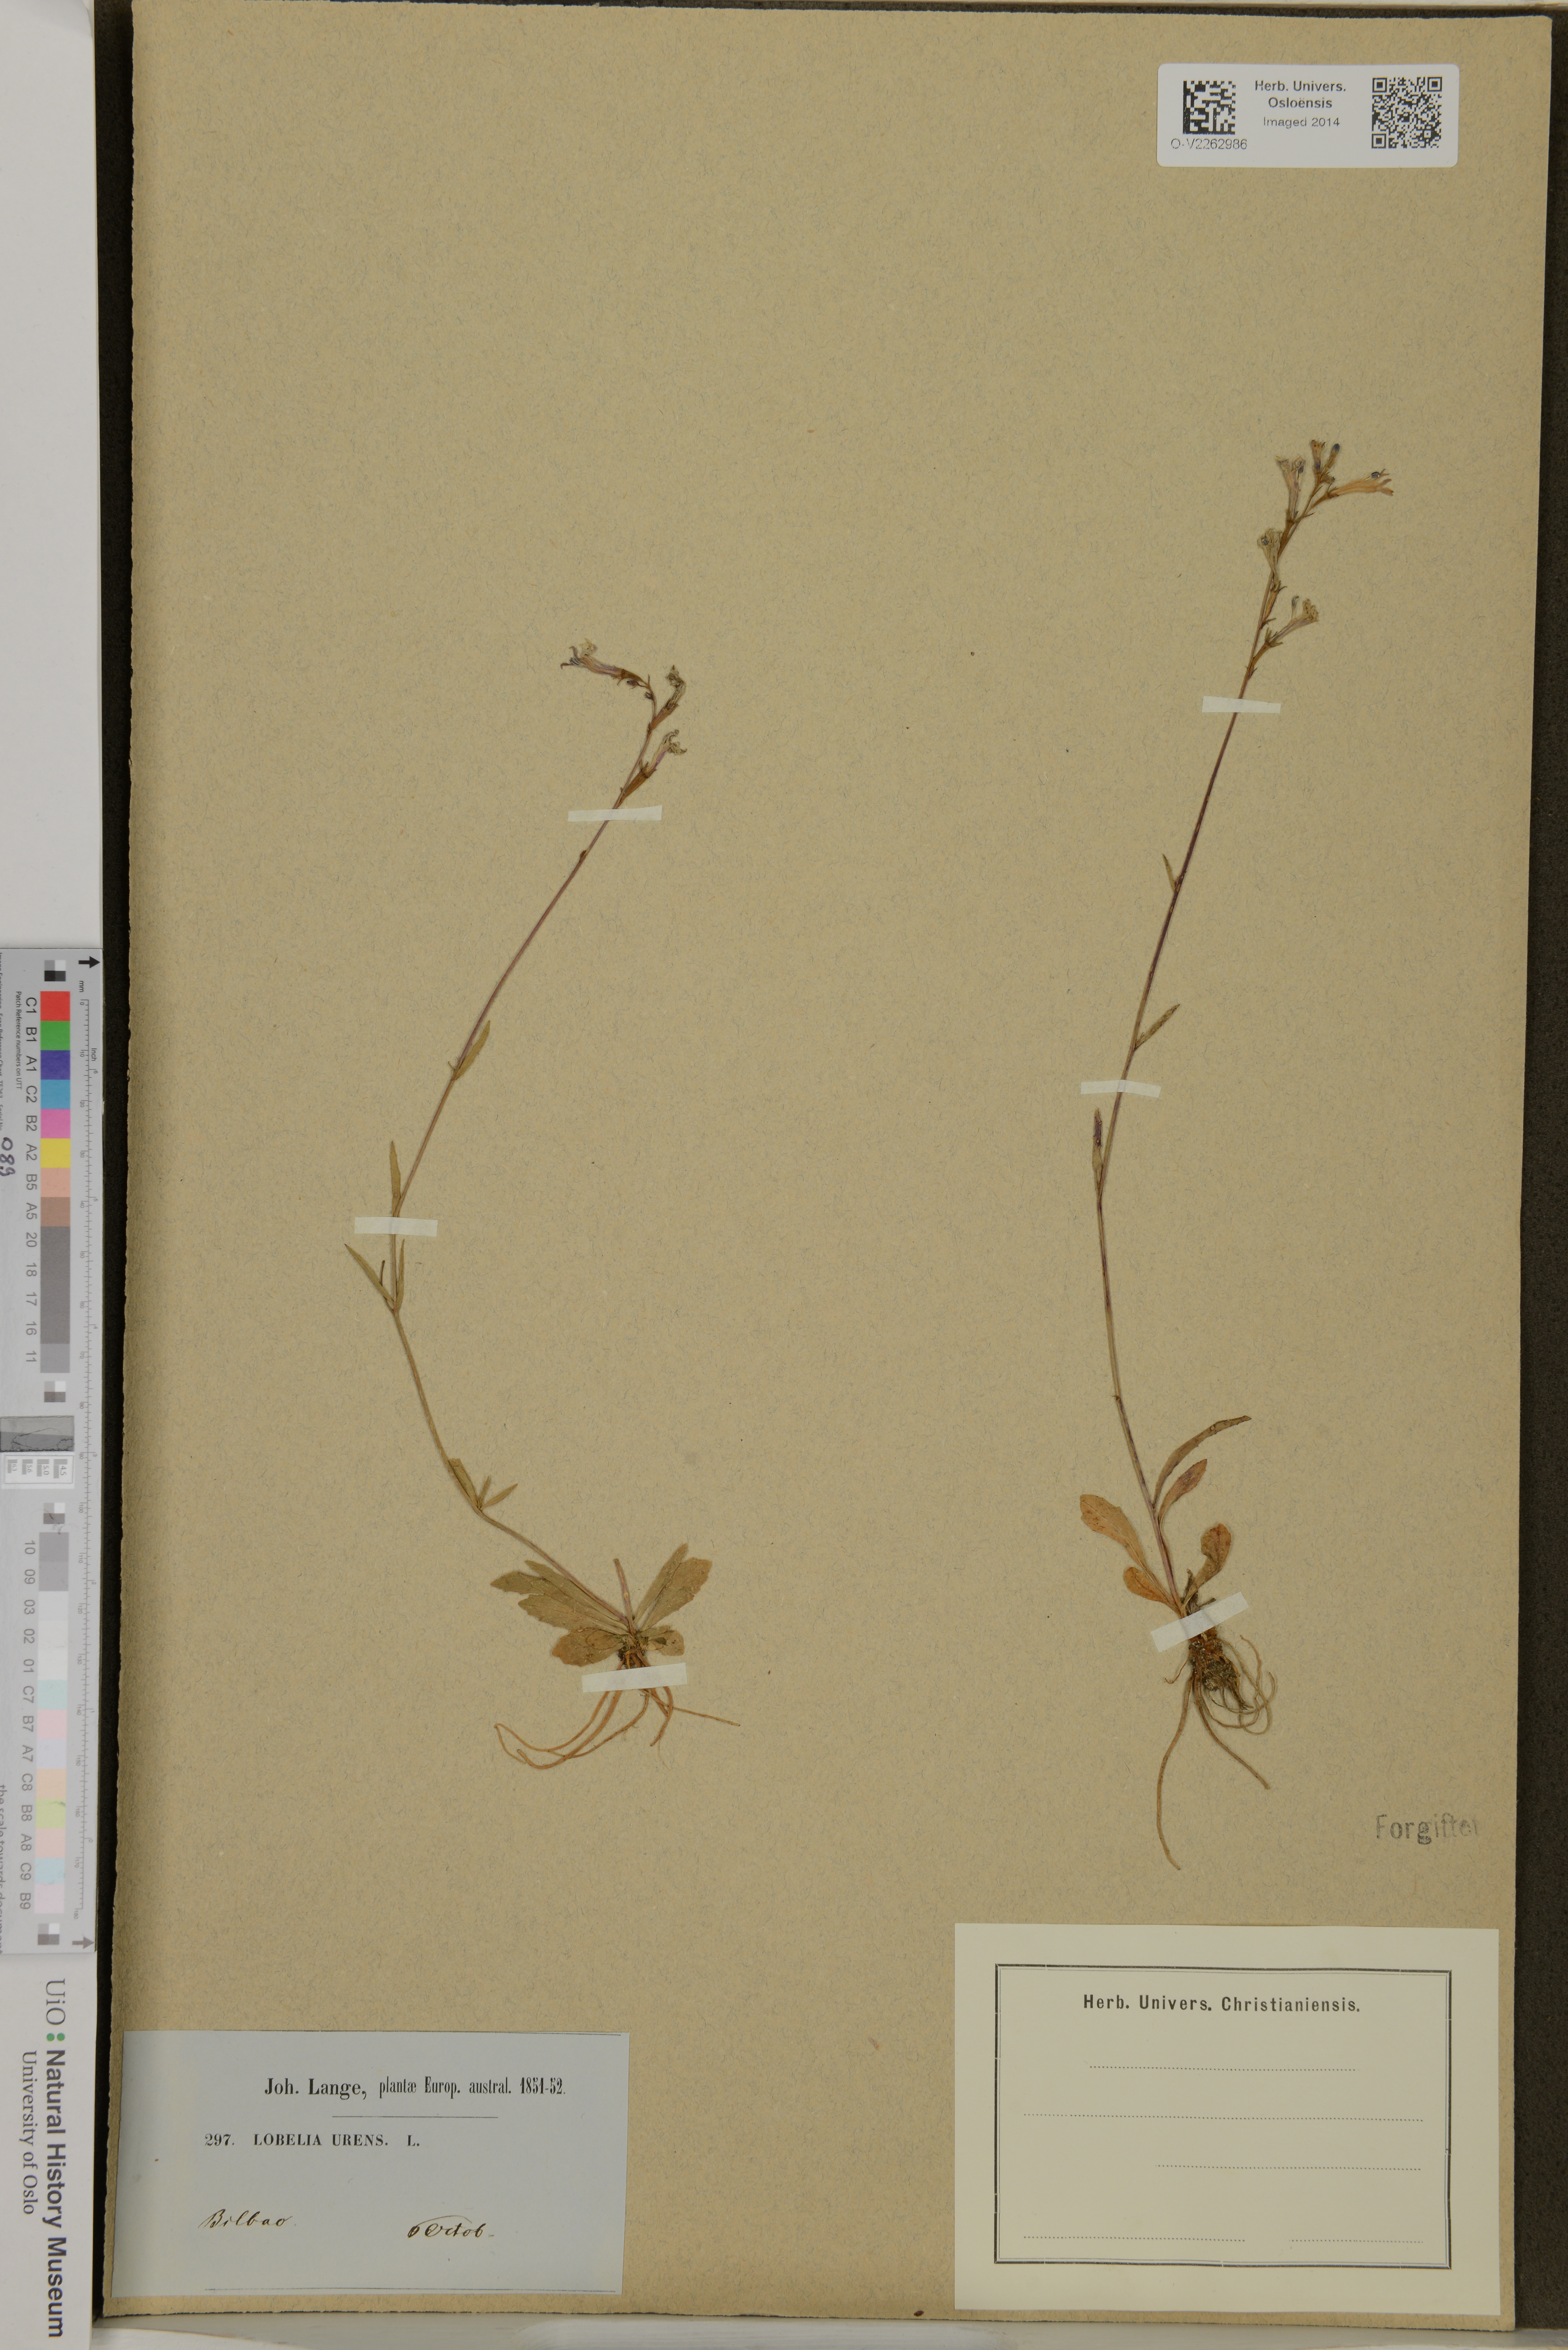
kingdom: Plantae
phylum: Tracheophyta
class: Magnoliopsida
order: Asterales
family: Campanulaceae
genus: Lobelia
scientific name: Lobelia urens
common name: Heath lobelia
